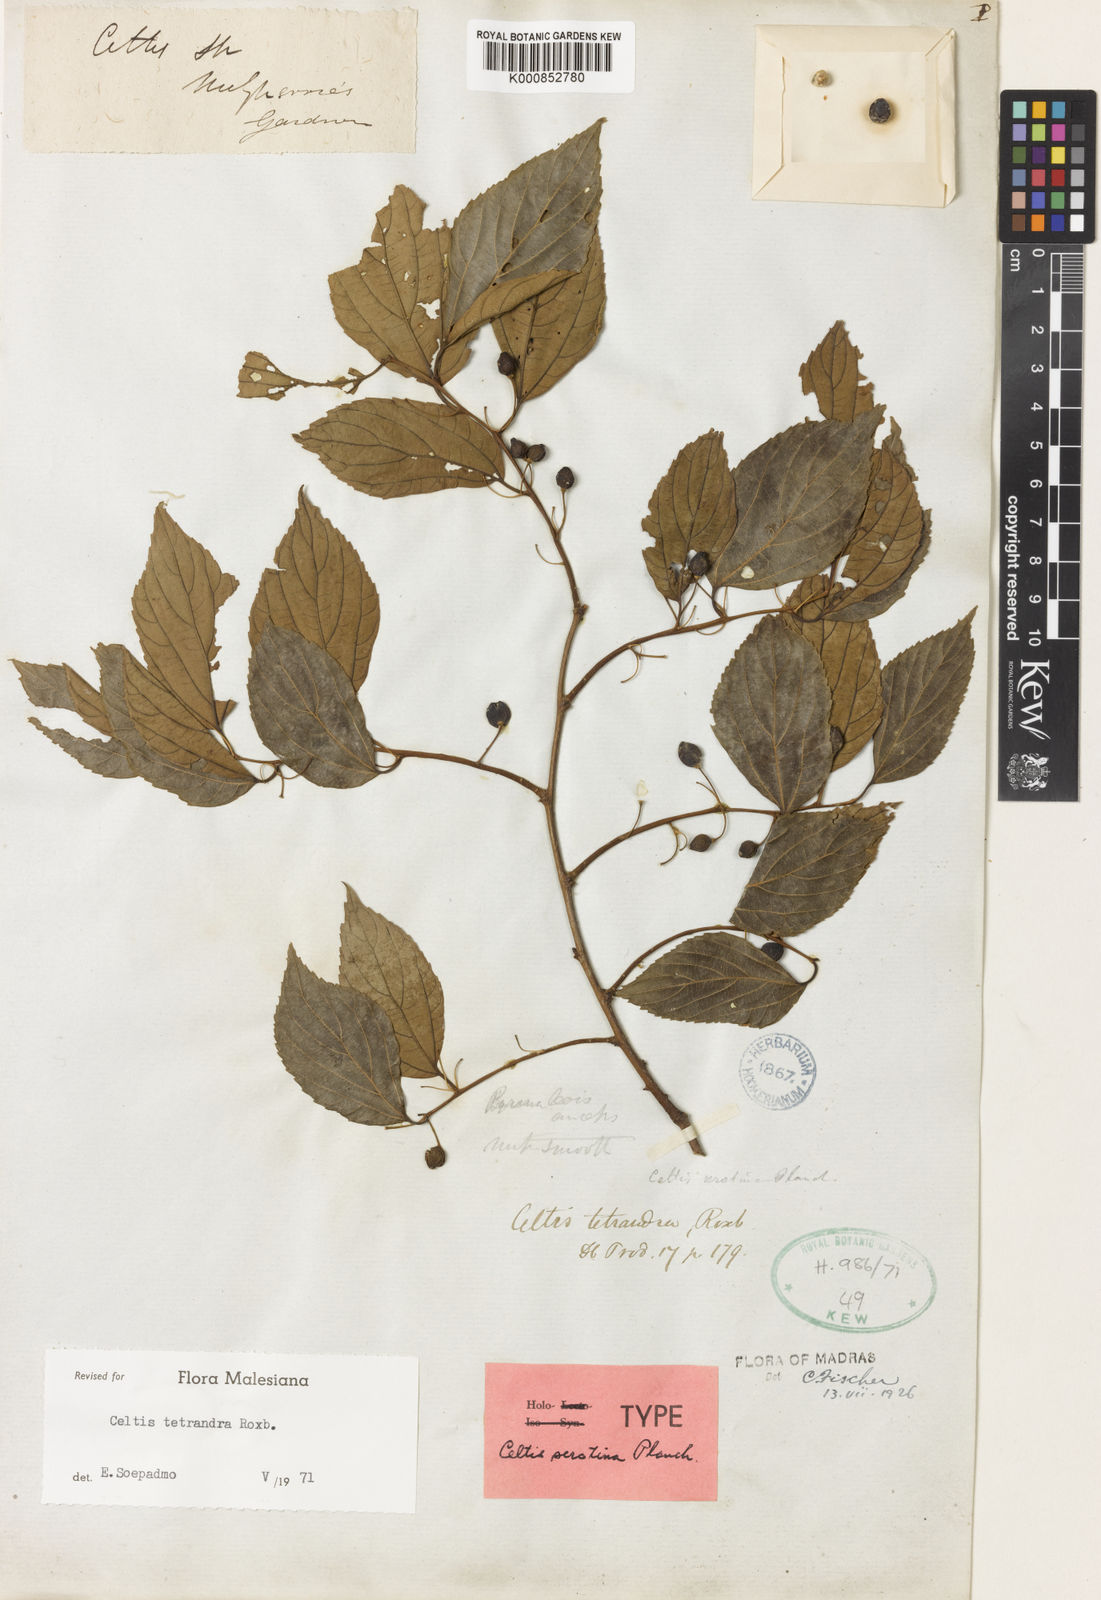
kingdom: Plantae
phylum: Tracheophyta
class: Magnoliopsida
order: Rosales
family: Cannabaceae
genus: Celtis
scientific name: Celtis tetrandra
